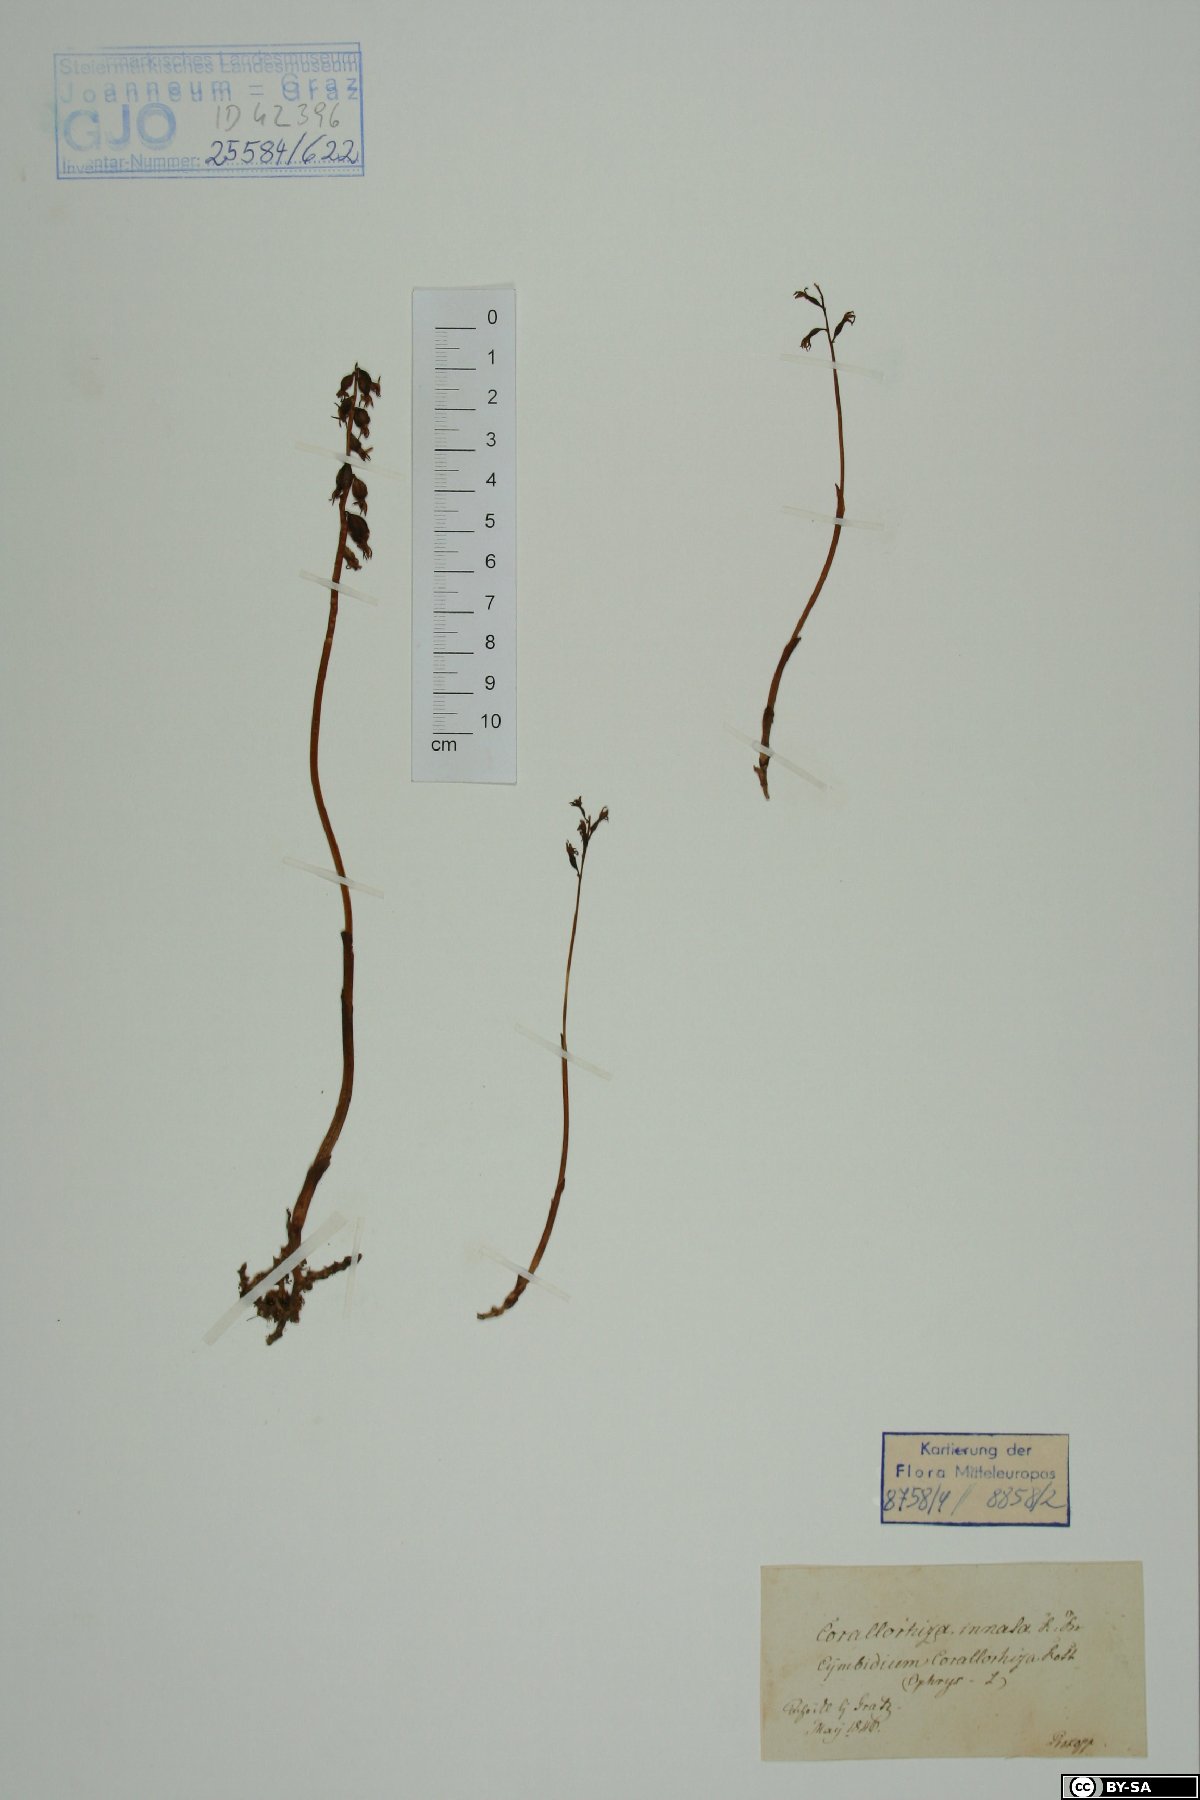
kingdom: Plantae
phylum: Tracheophyta
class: Liliopsida
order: Asparagales
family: Orchidaceae
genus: Corallorhiza
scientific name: Corallorhiza trifida
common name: Yellow coralroot
